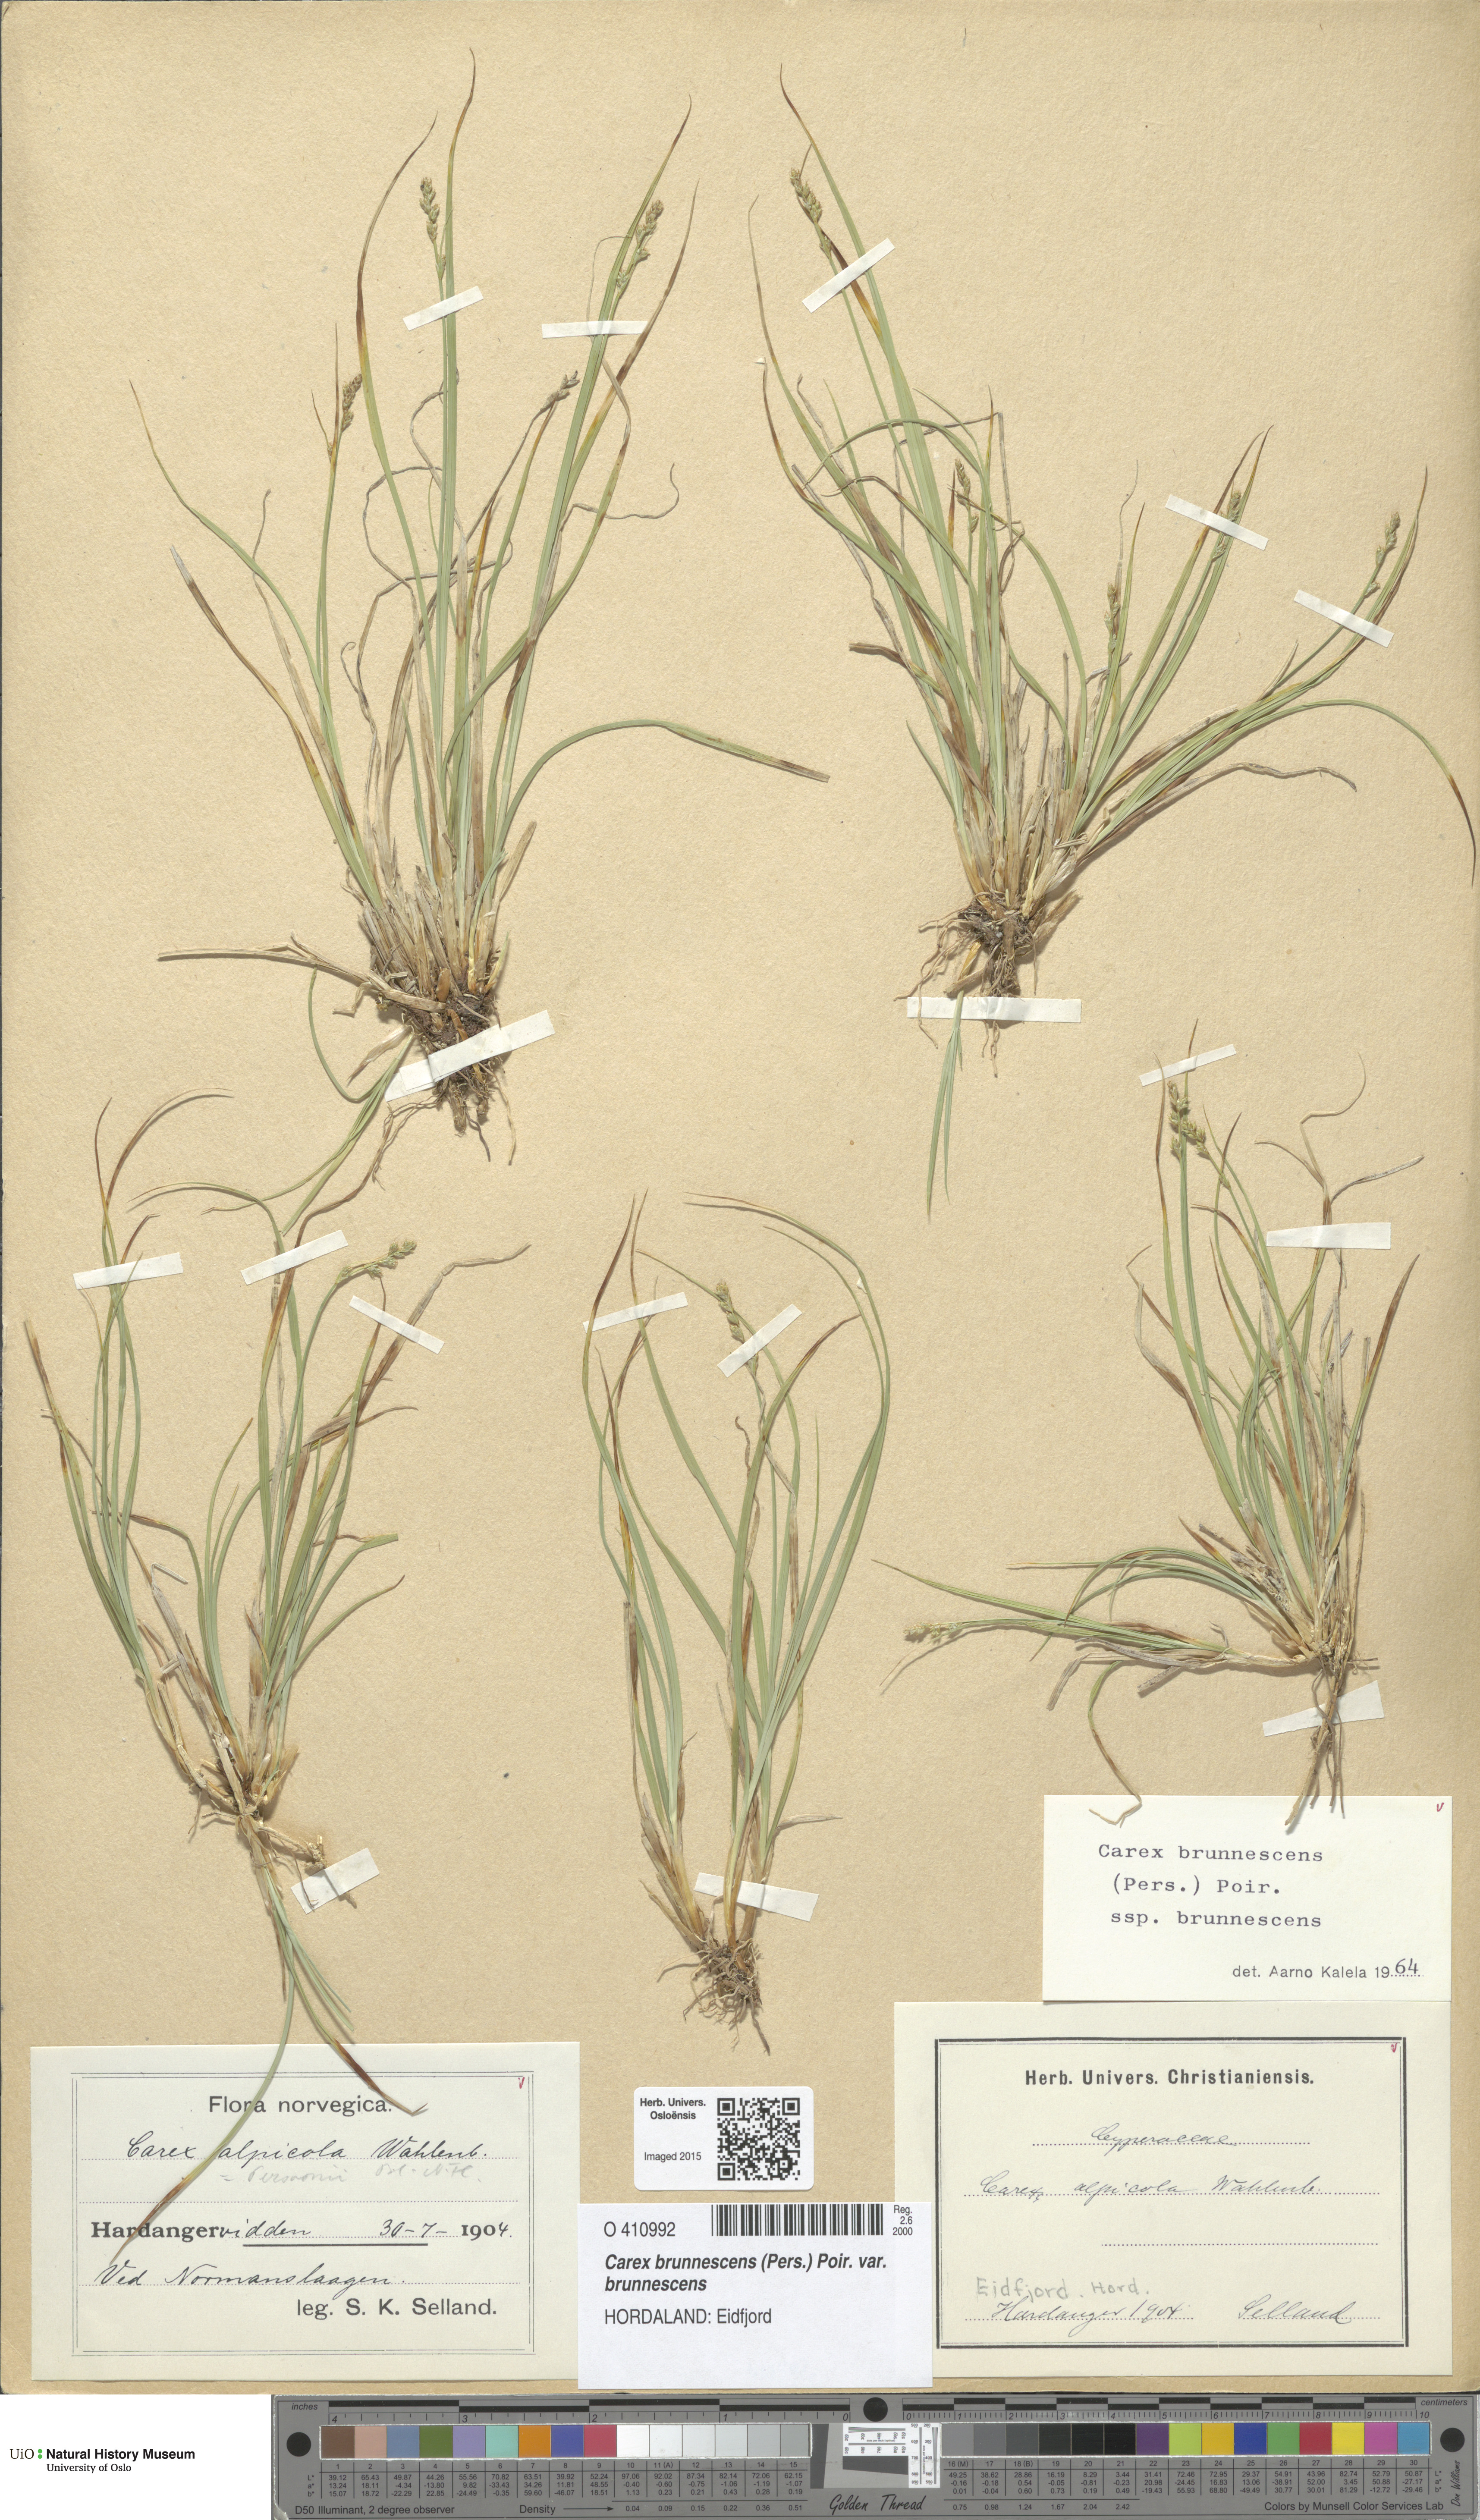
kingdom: Plantae
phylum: Tracheophyta
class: Liliopsida
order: Poales
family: Cyperaceae
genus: Carex
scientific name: Carex brunnescens
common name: Brown sedge
